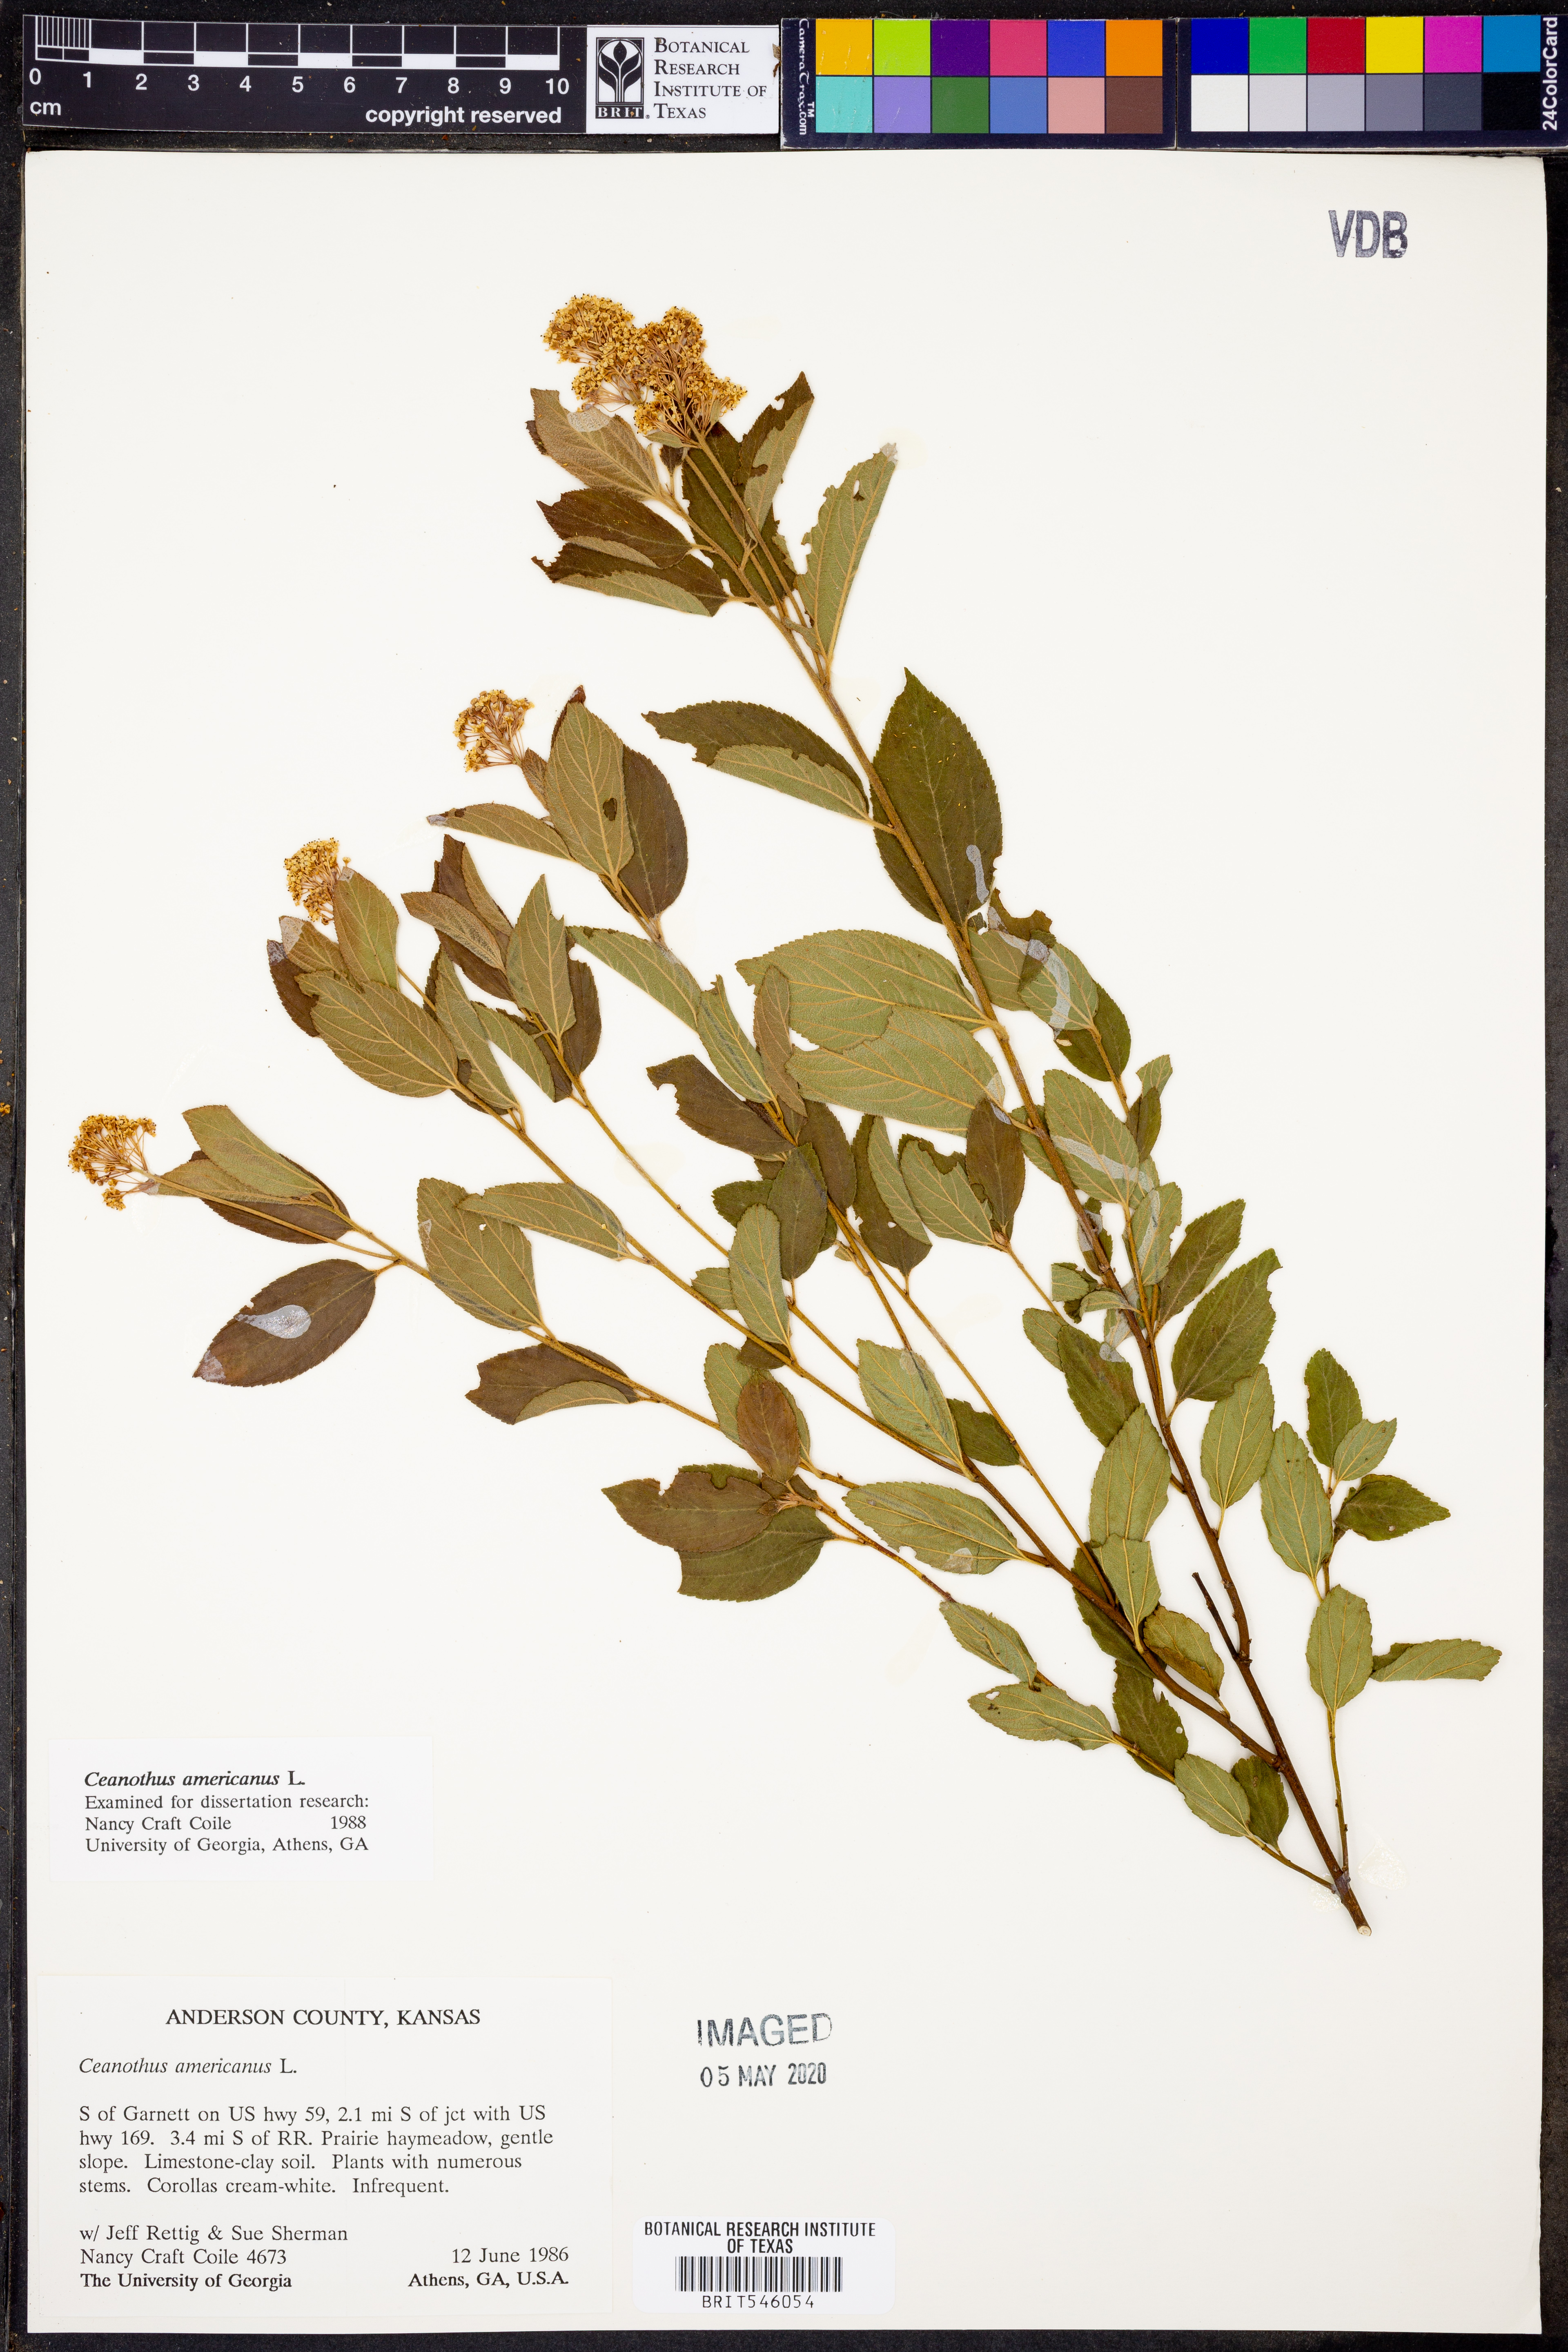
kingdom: Plantae
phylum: Tracheophyta
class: Magnoliopsida
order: Rosales
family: Rhamnaceae
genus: Ceanothus
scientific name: Ceanothus americanus
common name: Redroot
